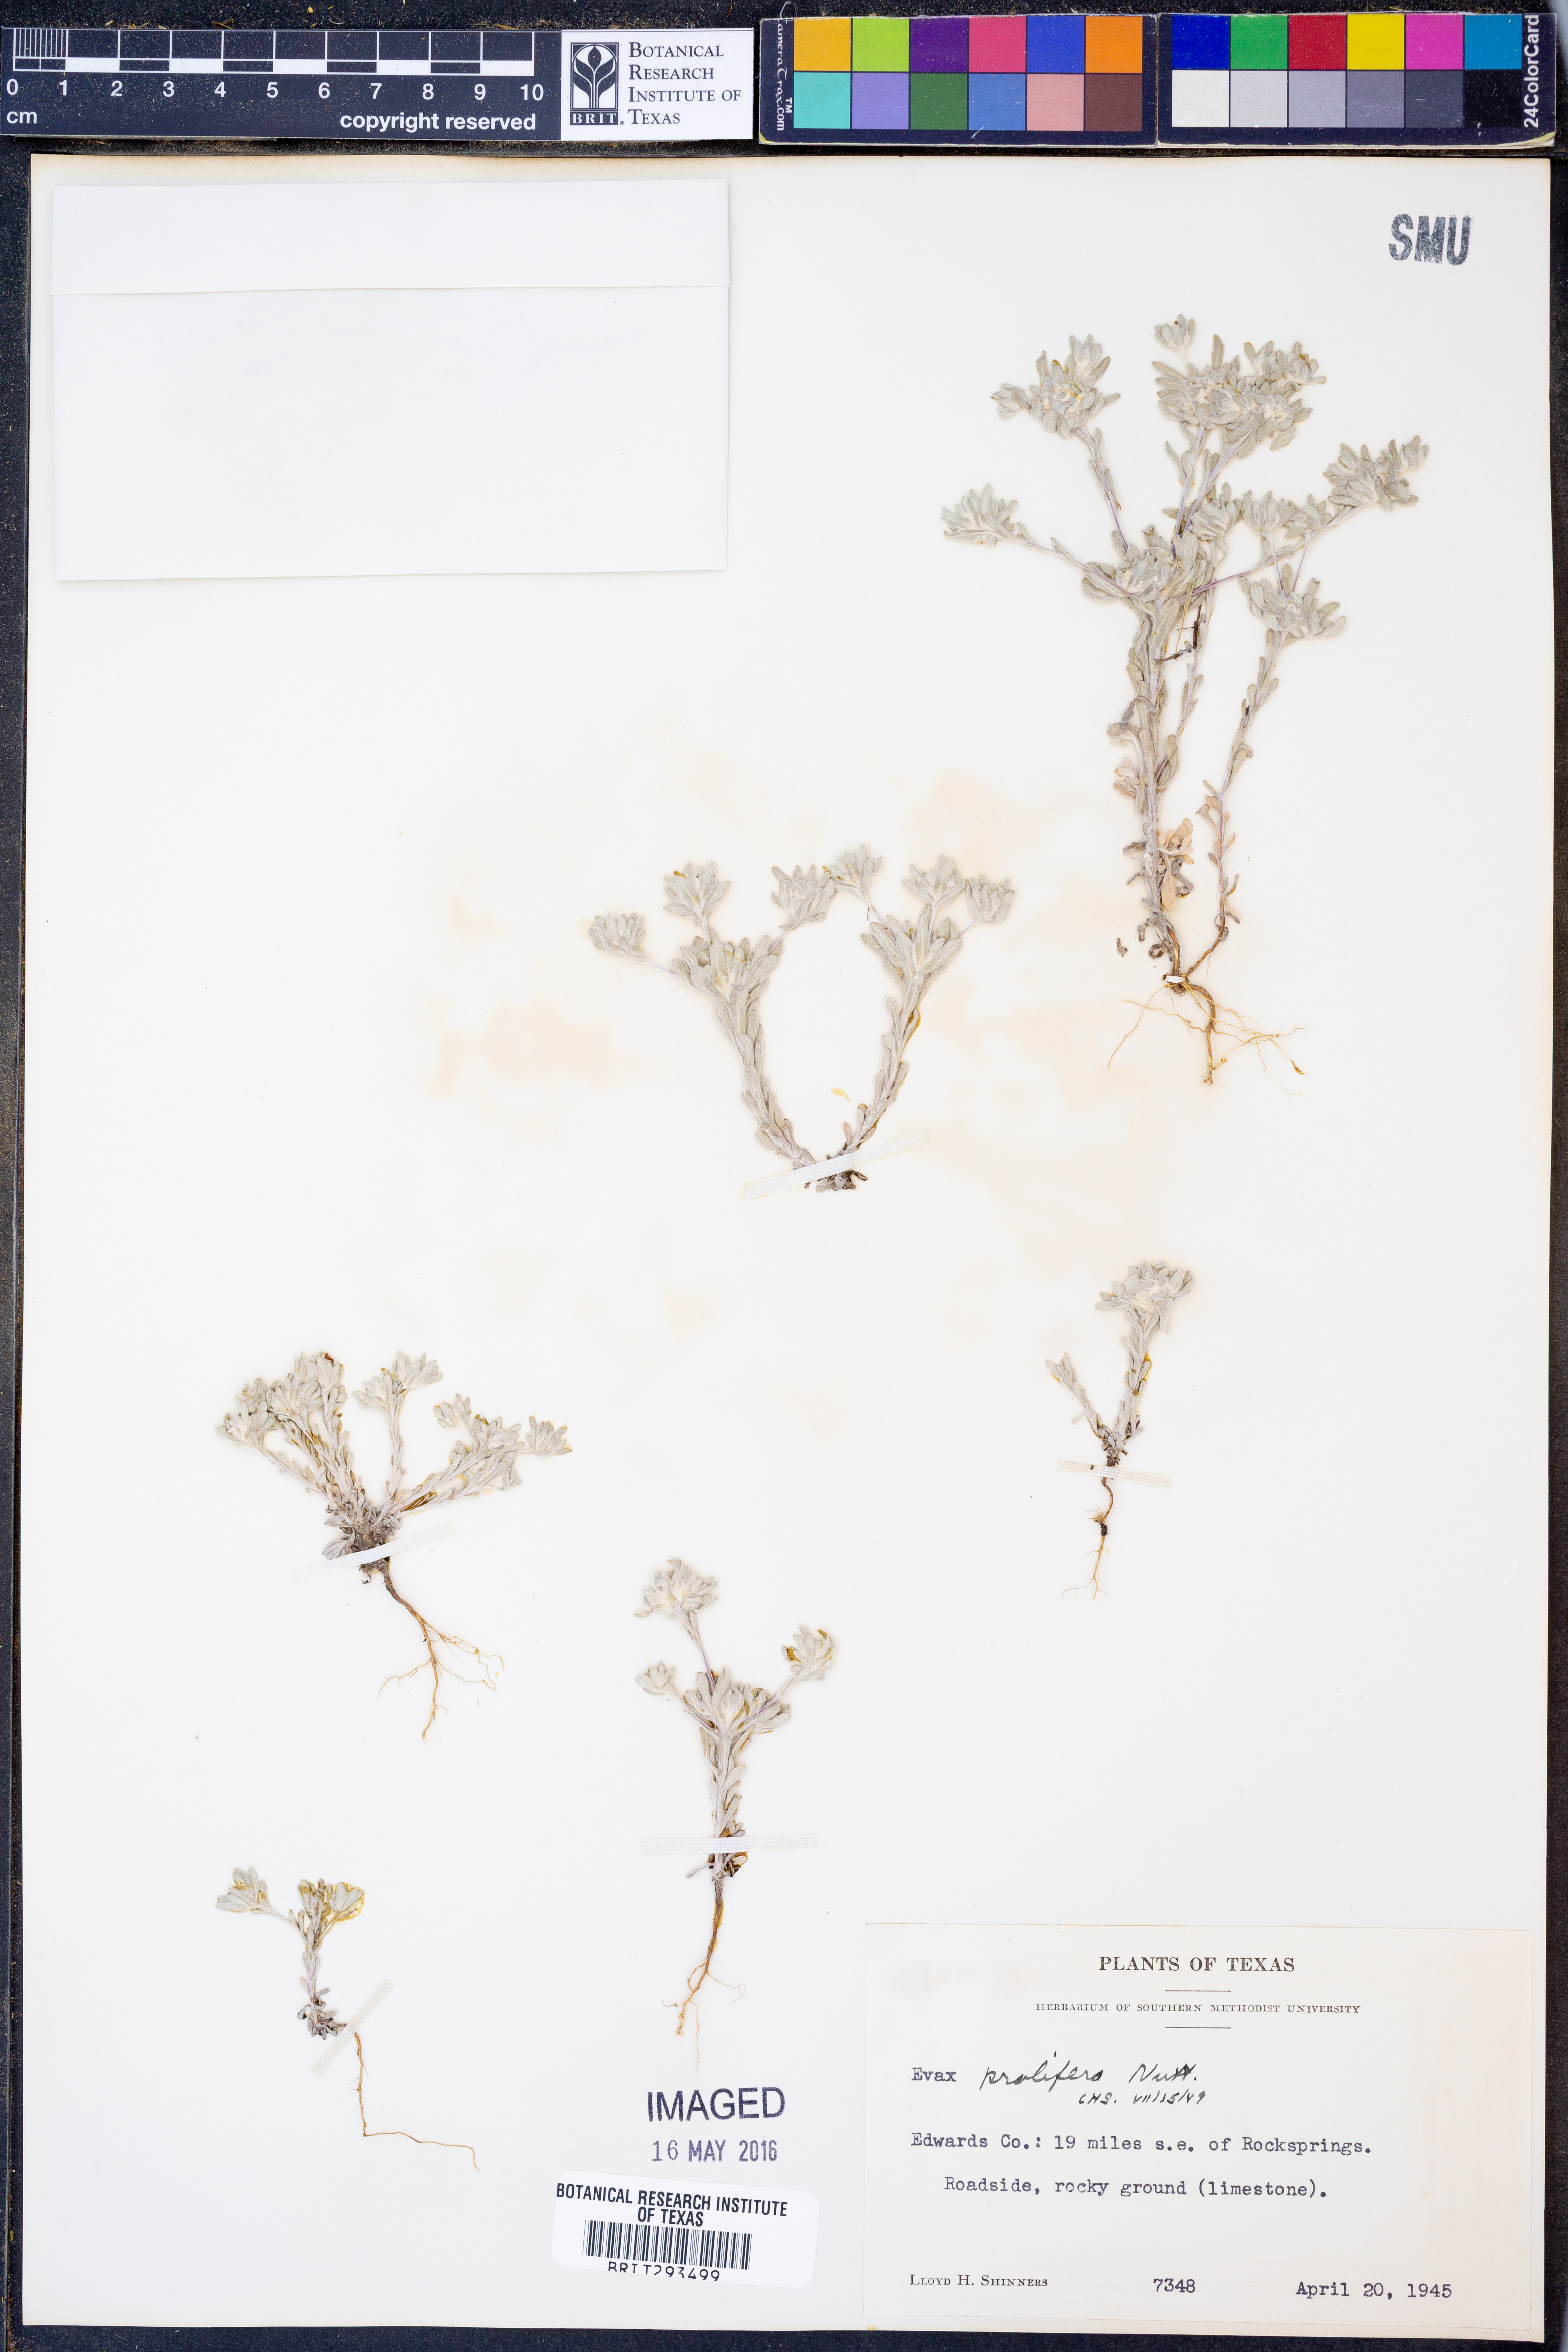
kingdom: Plantae
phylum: Tracheophyta
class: Magnoliopsida
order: Asterales
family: Asteraceae
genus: Diaperia
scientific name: Diaperia prolifera
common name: Big-head rabbit-tobacco
